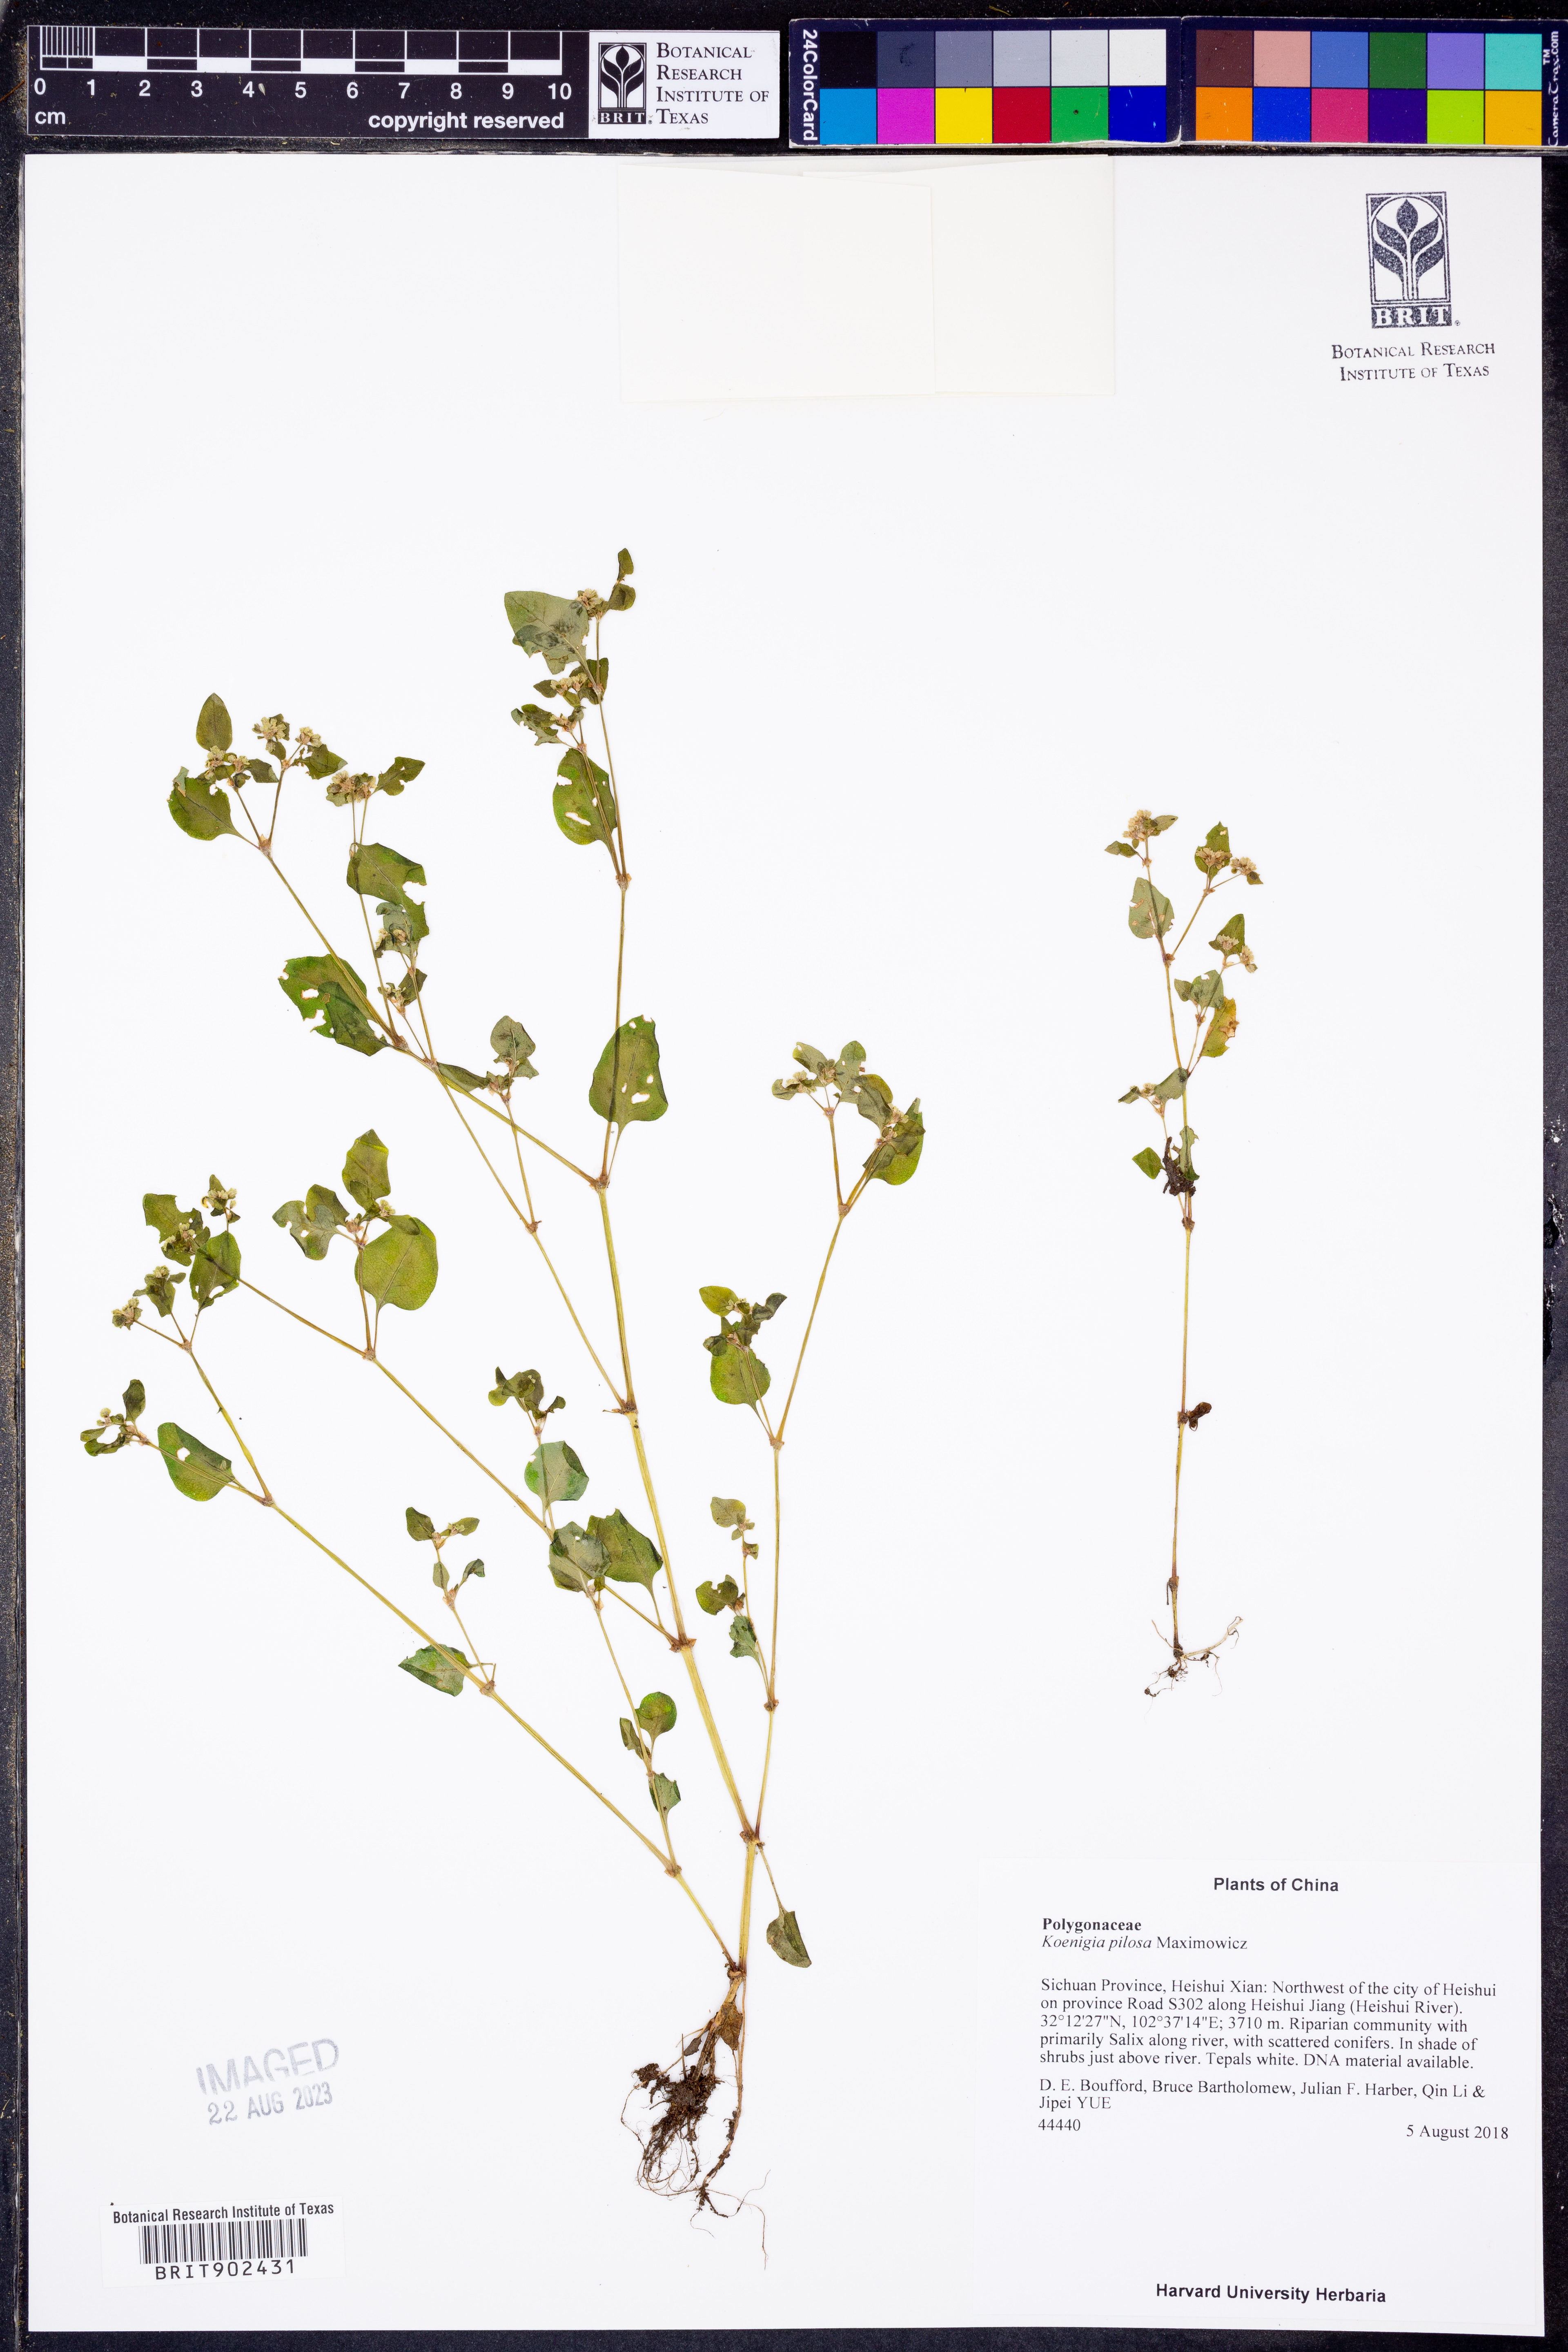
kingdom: Plantae
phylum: Tracheophyta
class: Magnoliopsida
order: Caryophyllales
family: Polygonaceae
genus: Koenigia
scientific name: Koenigia pilosa
